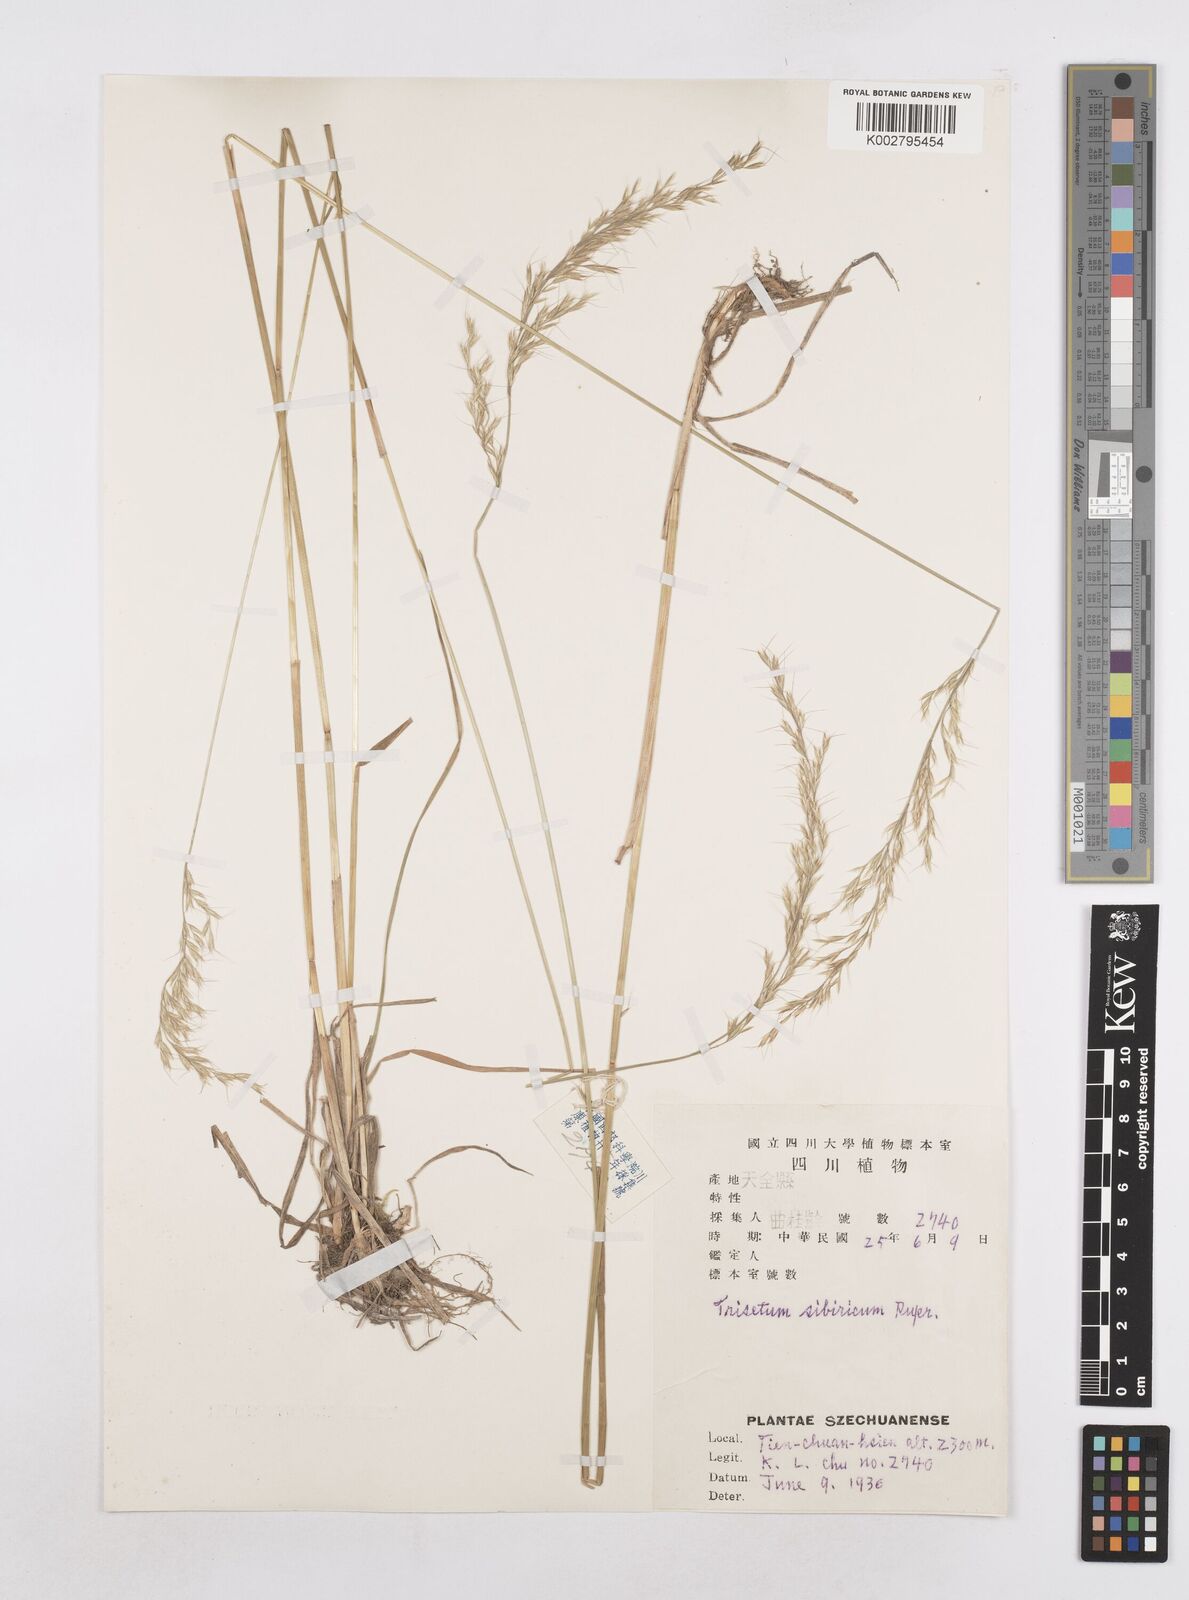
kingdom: Plantae
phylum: Tracheophyta
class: Liliopsida
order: Poales
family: Poaceae
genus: Helictotrichon
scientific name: Helictotrichon
